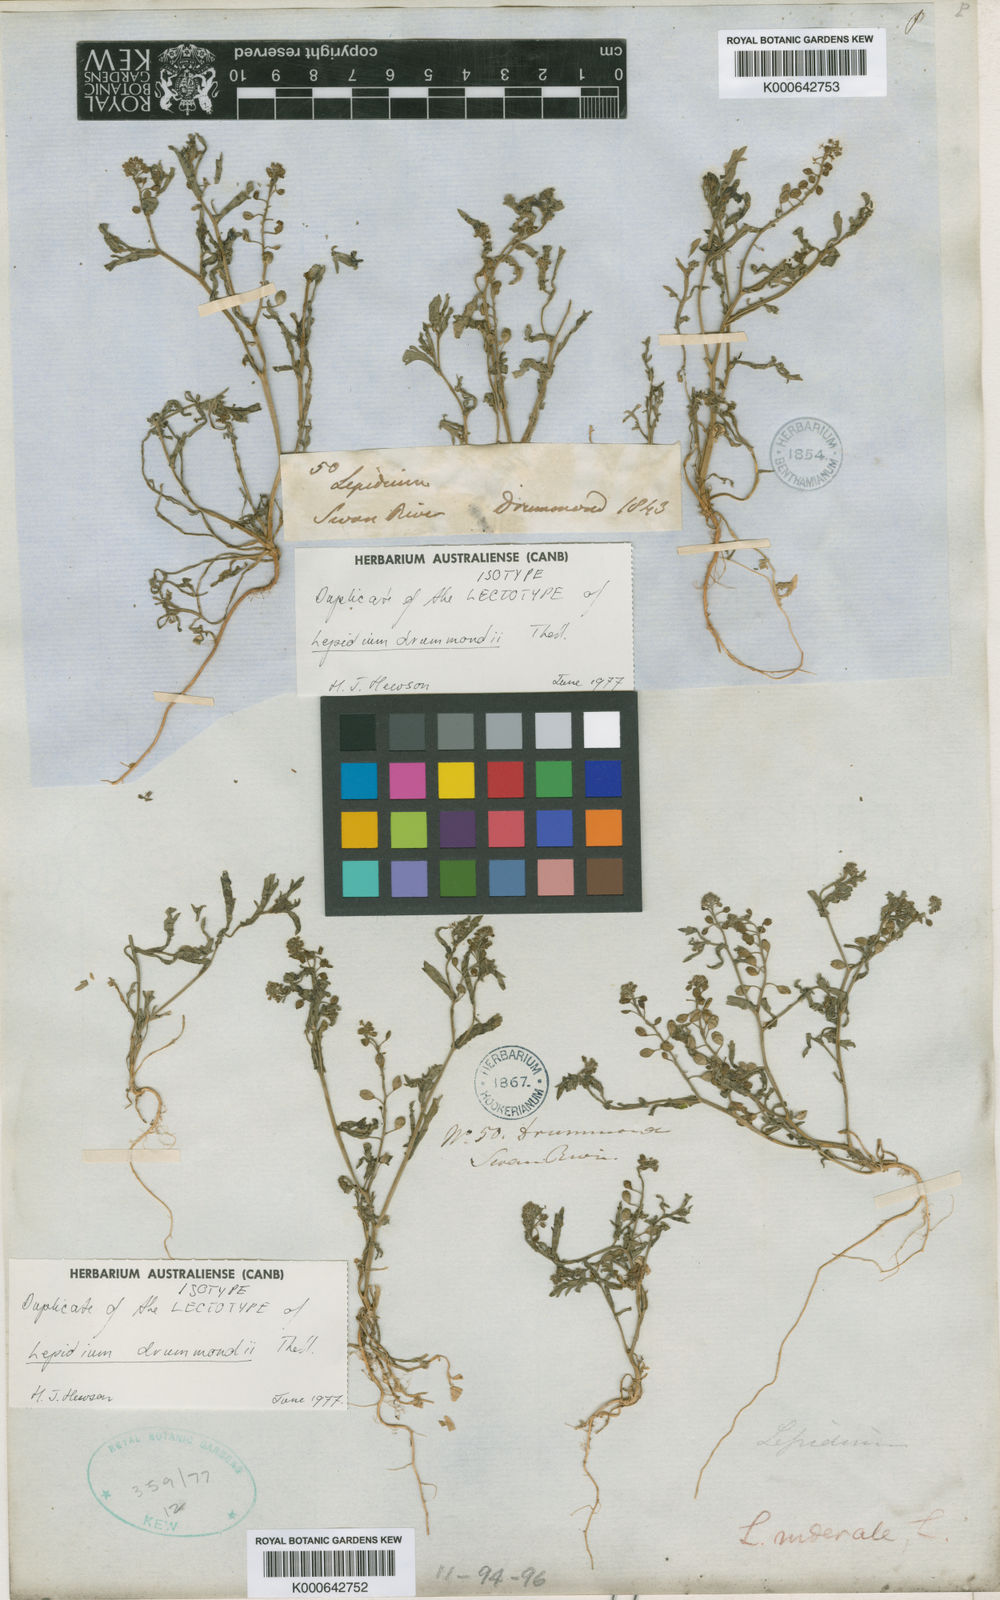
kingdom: Plantae
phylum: Tracheophyta
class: Magnoliopsida
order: Brassicales
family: Brassicaceae
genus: Lepidium
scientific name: Lepidium drummondii
